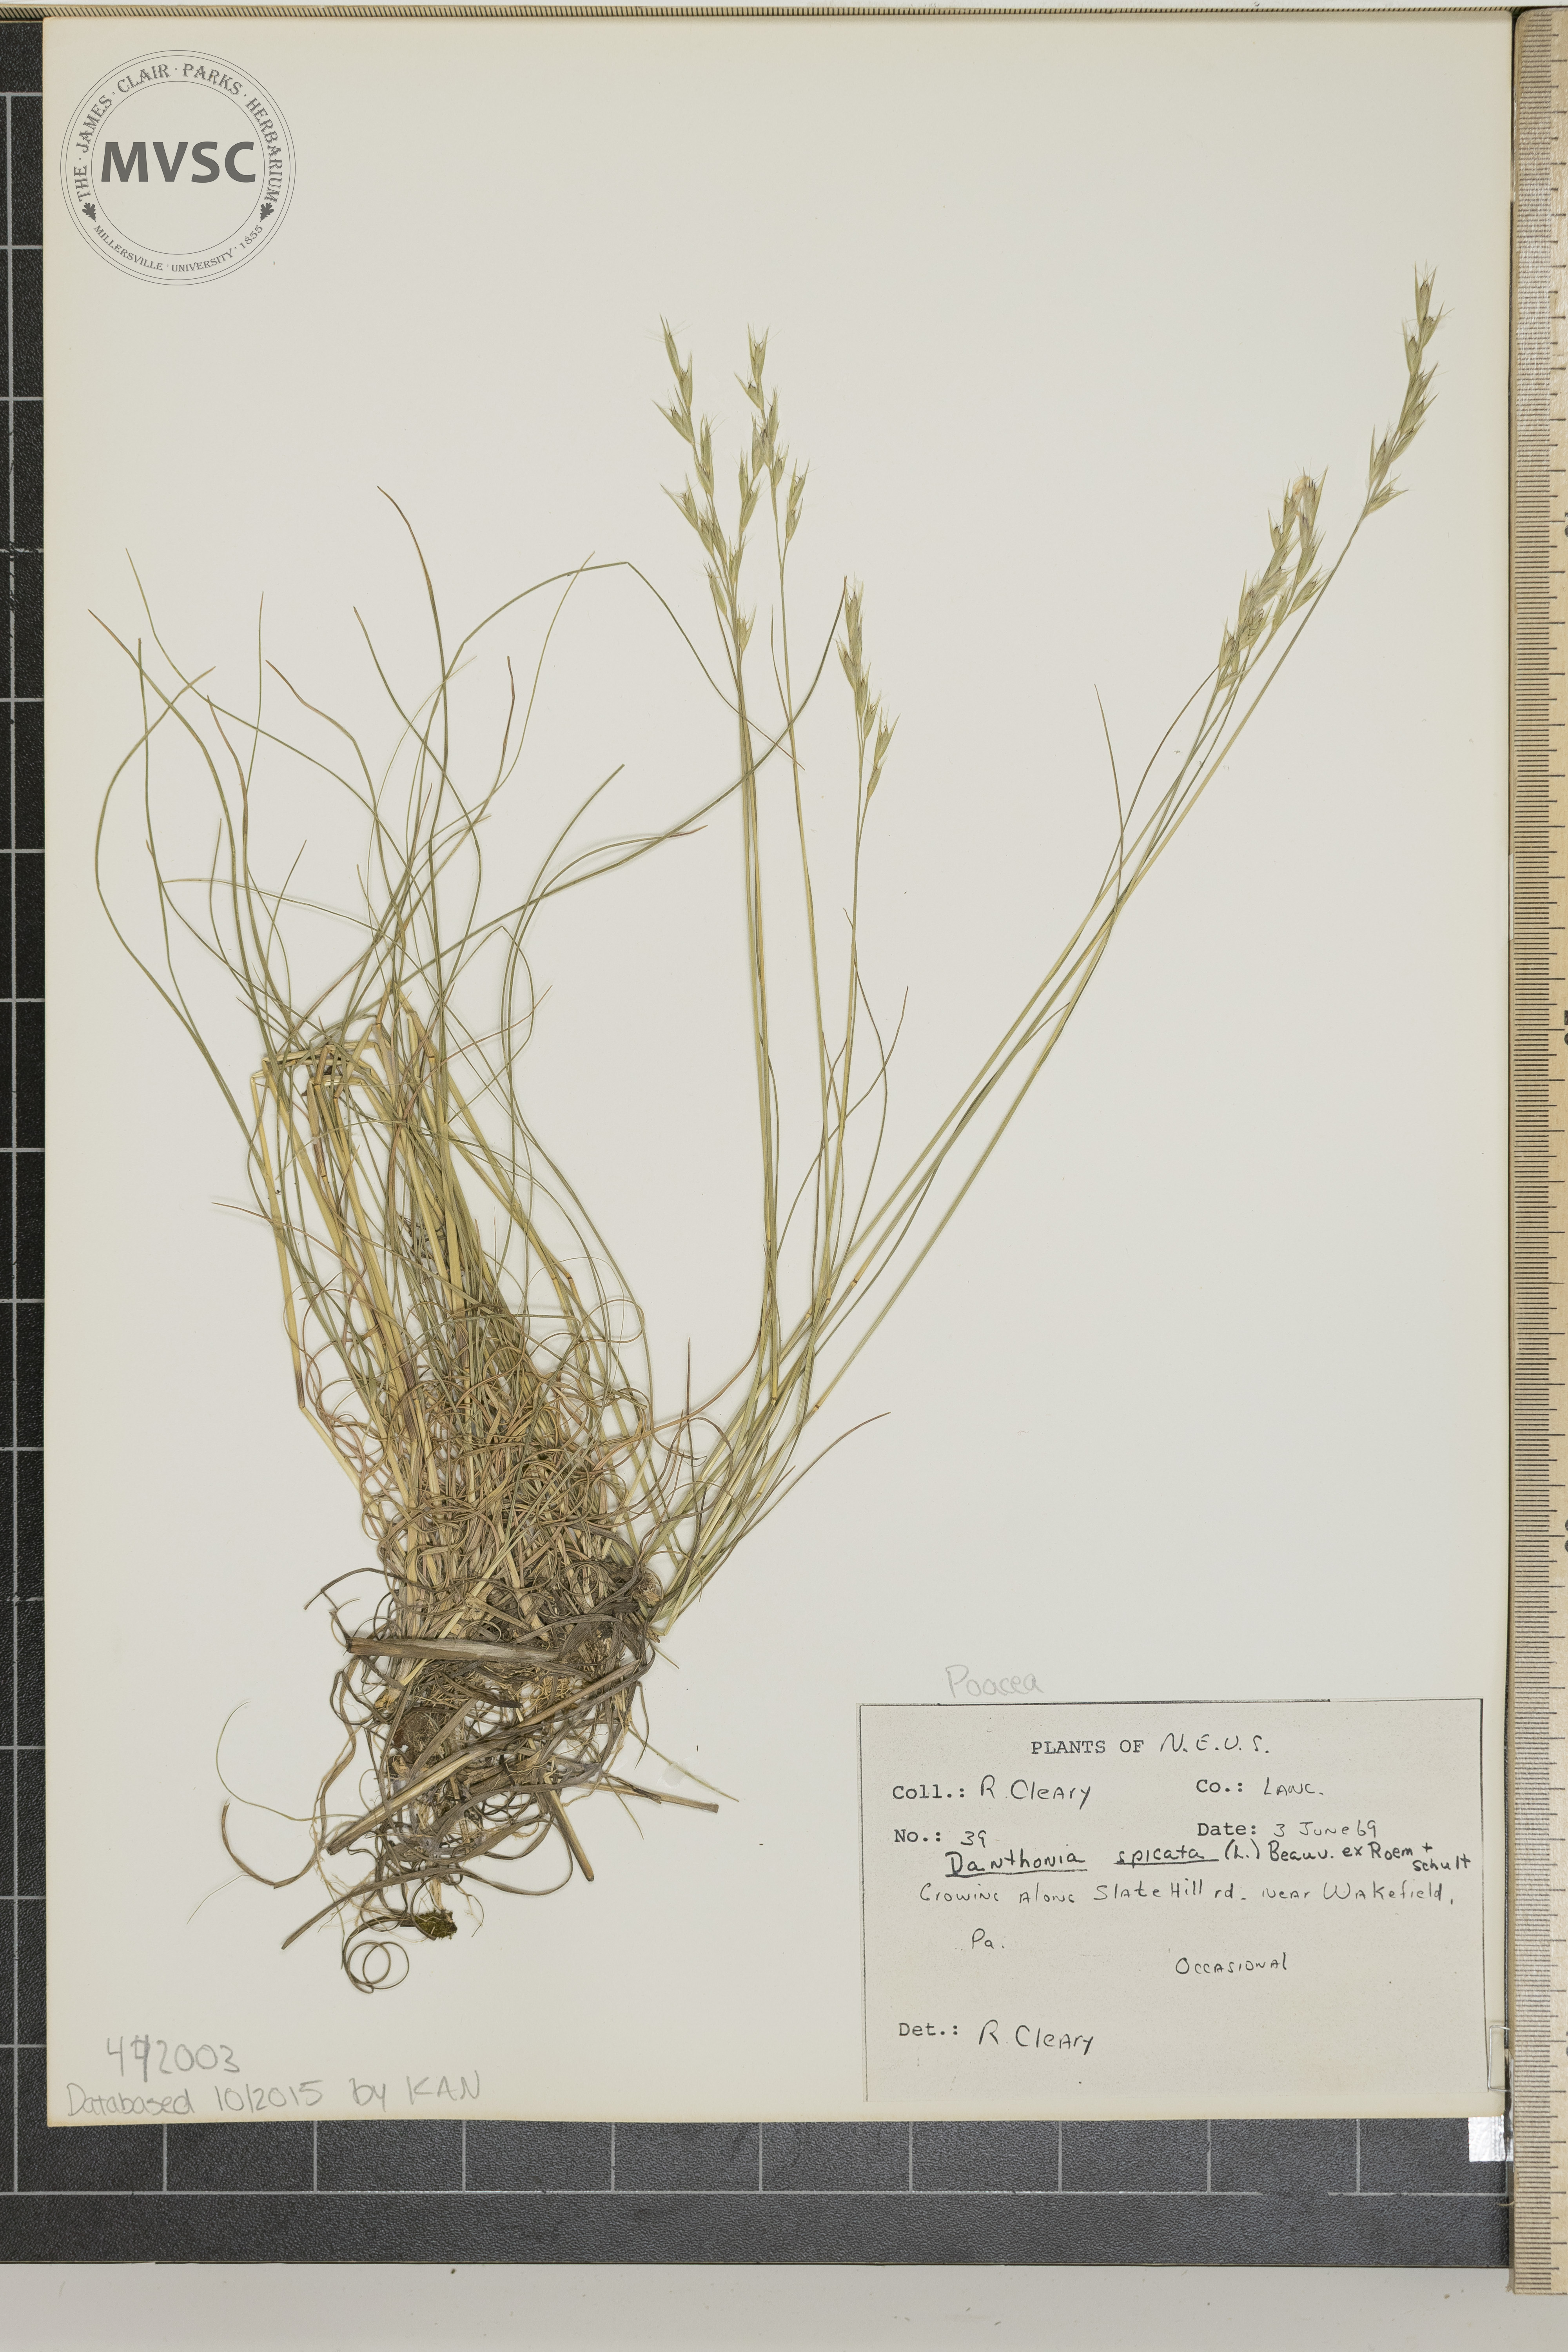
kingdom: Plantae
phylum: Tracheophyta
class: Liliopsida
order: Poales
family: Poaceae
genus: Danthonia
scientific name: Danthonia spicata
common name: Common wild oatgrass
